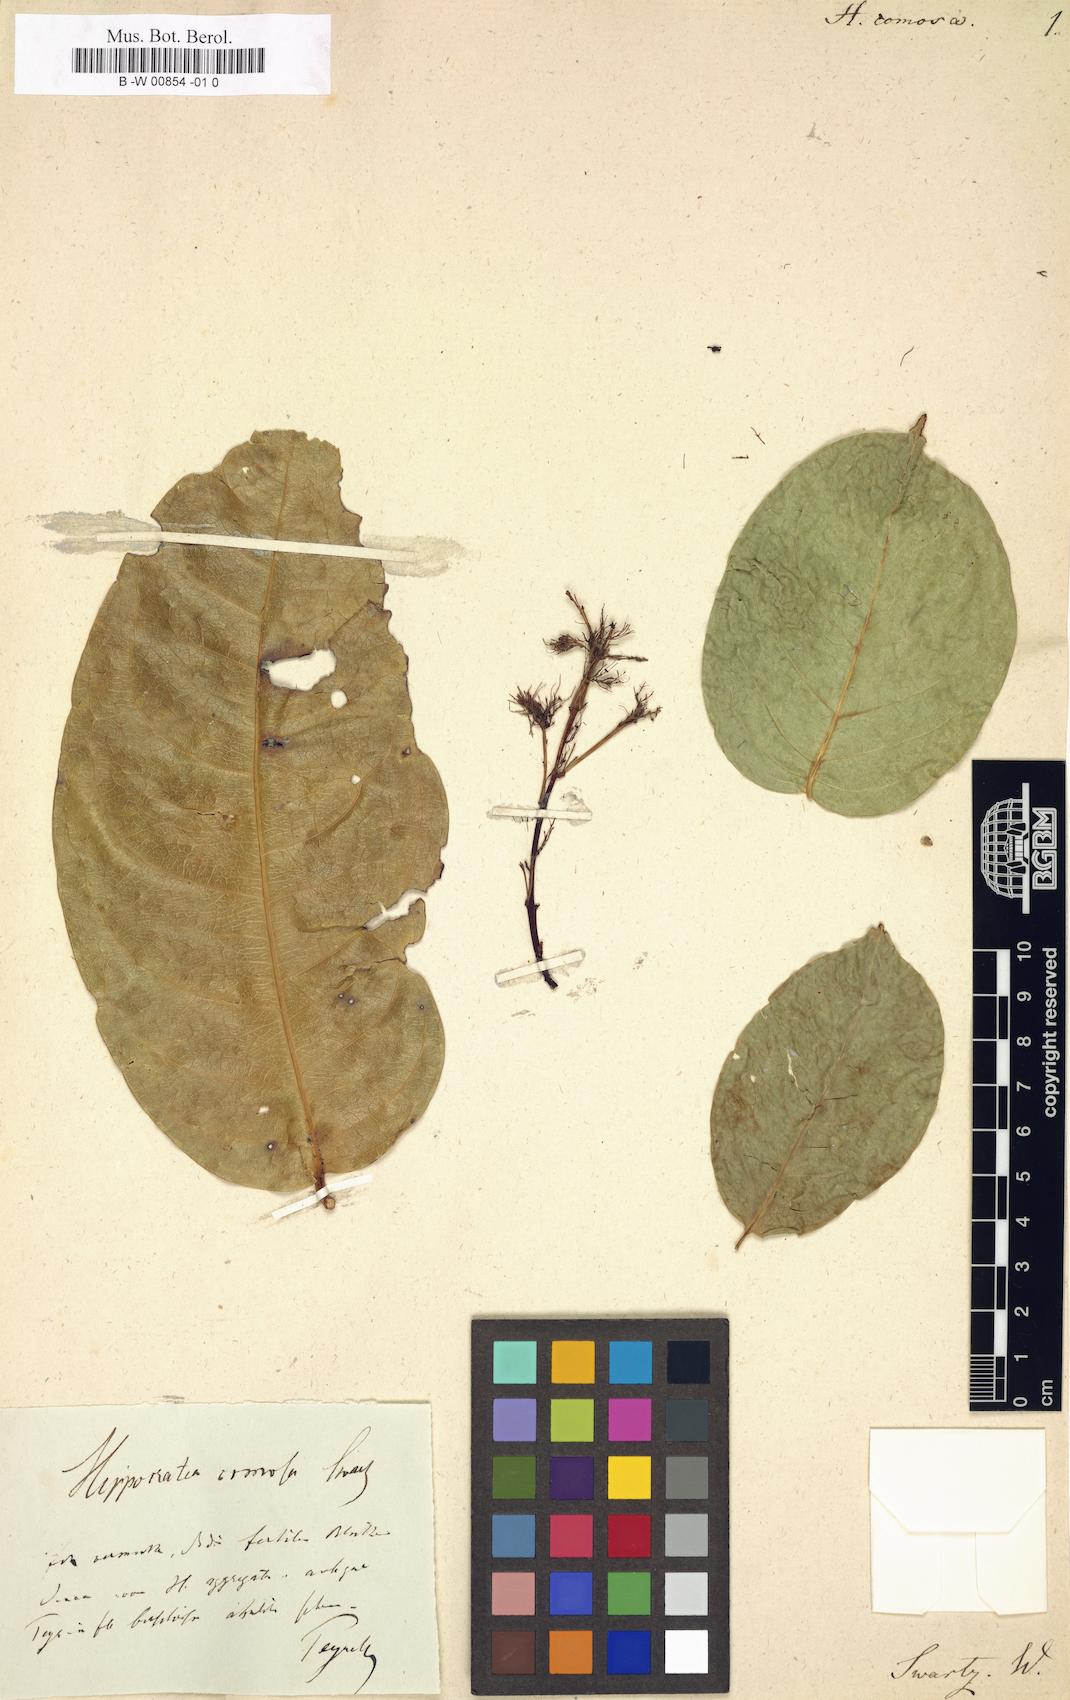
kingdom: Plantae
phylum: Tracheophyta
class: Magnoliopsida
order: Celastrales
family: Celastraceae
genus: Hylenaea
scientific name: Hylenaea comosa
